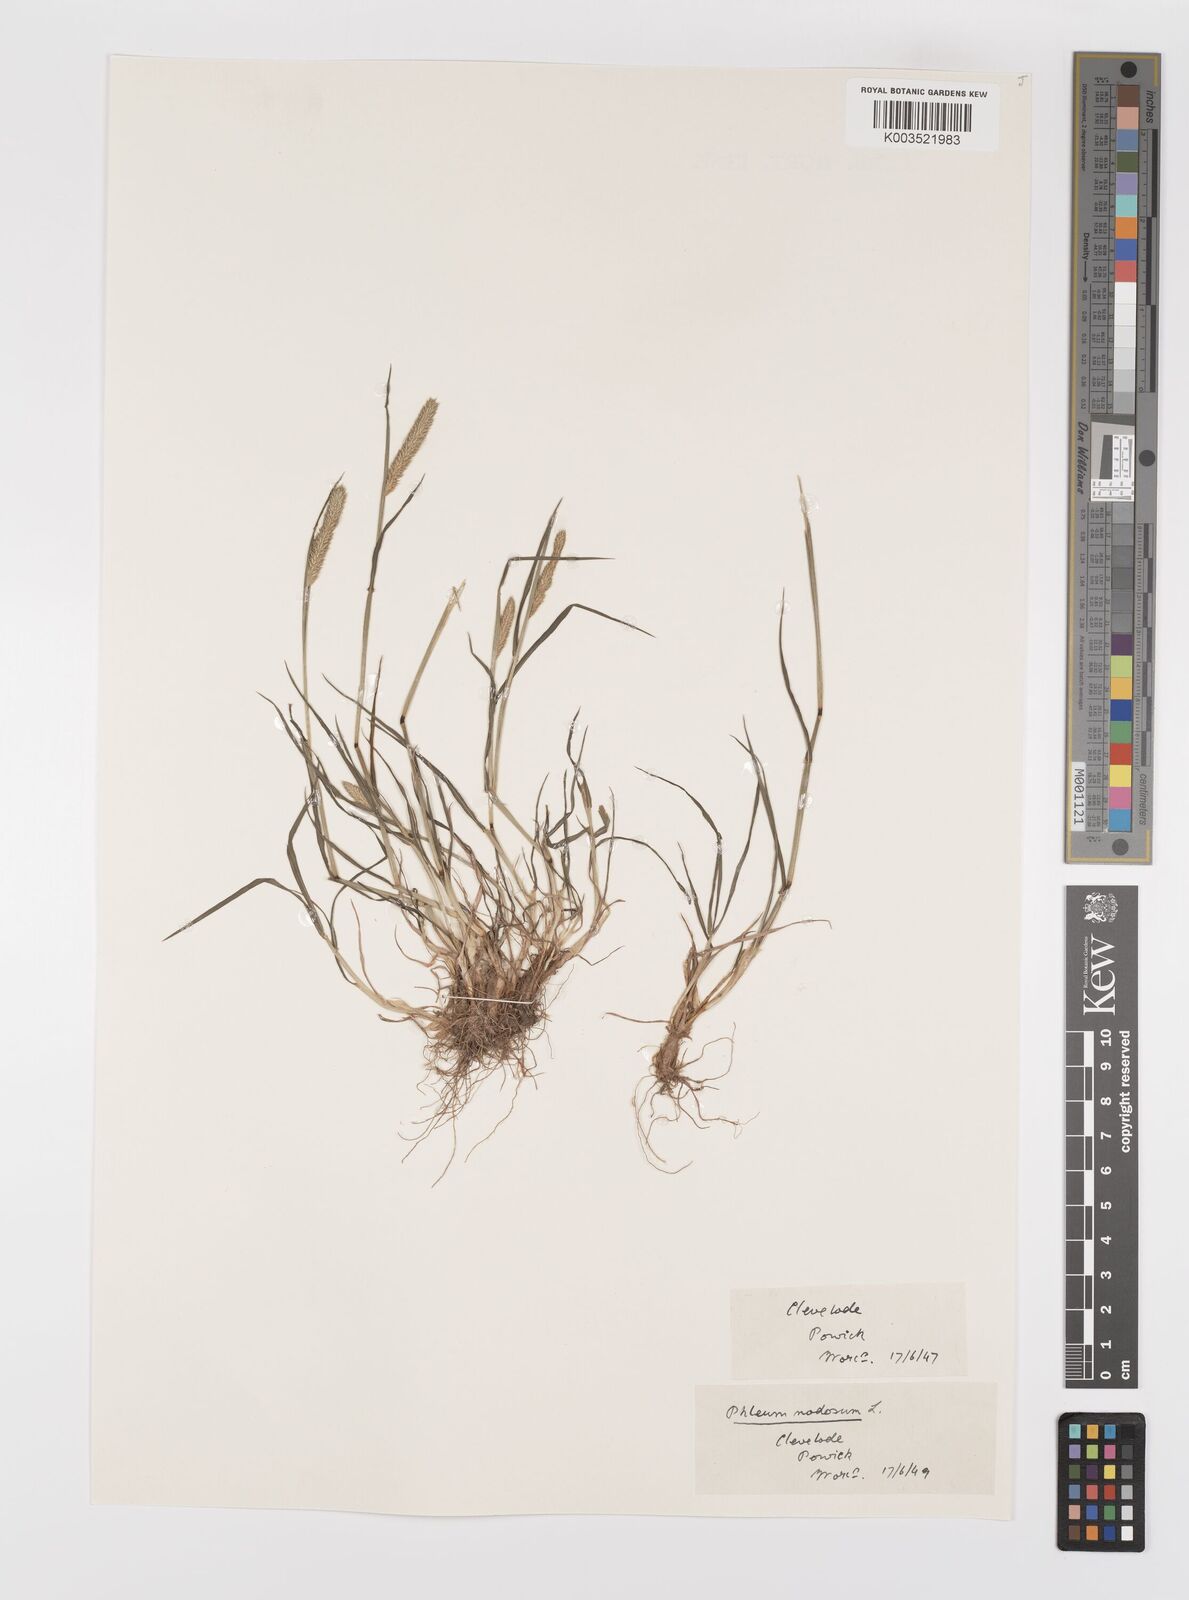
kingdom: Plantae
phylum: Tracheophyta
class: Liliopsida
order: Poales
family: Poaceae
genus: Phleum
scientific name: Phleum bertolonii
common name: Smaller cat's-tail
